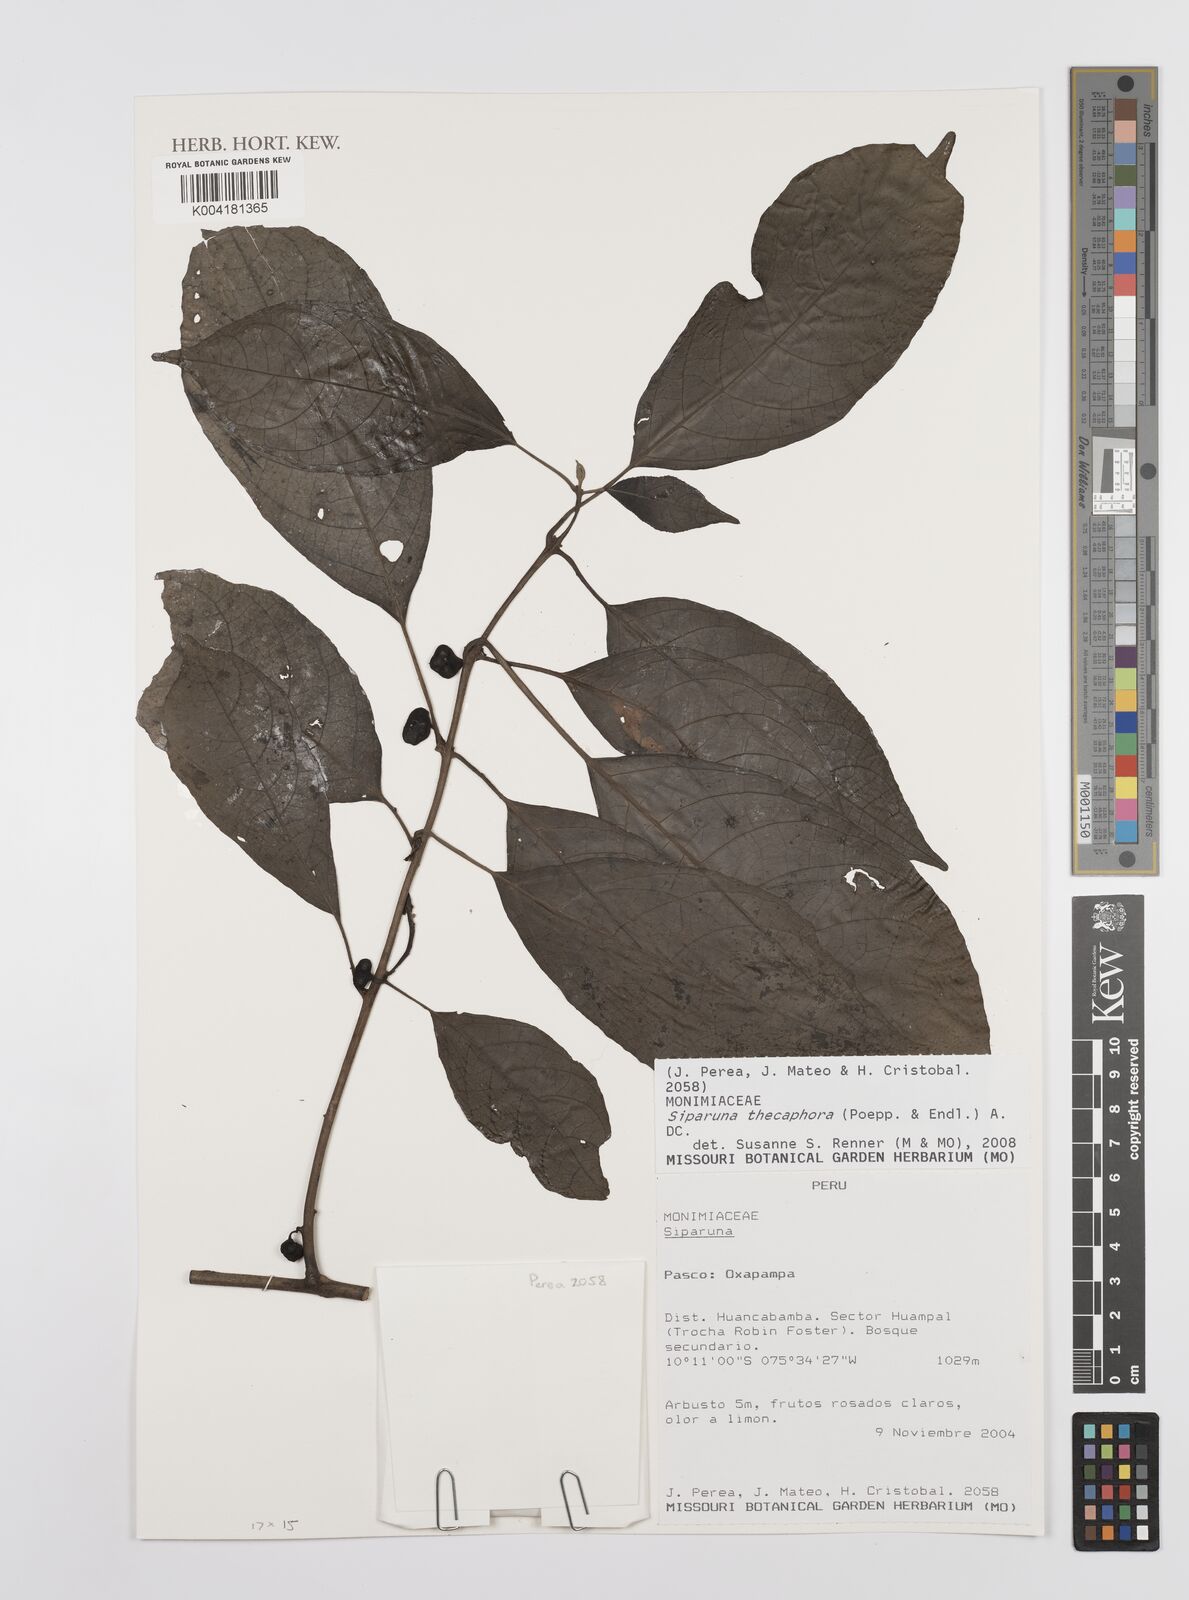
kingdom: Plantae
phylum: Tracheophyta
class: Magnoliopsida
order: Laurales
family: Siparunaceae
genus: Siparuna
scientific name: Siparuna thecaphora
